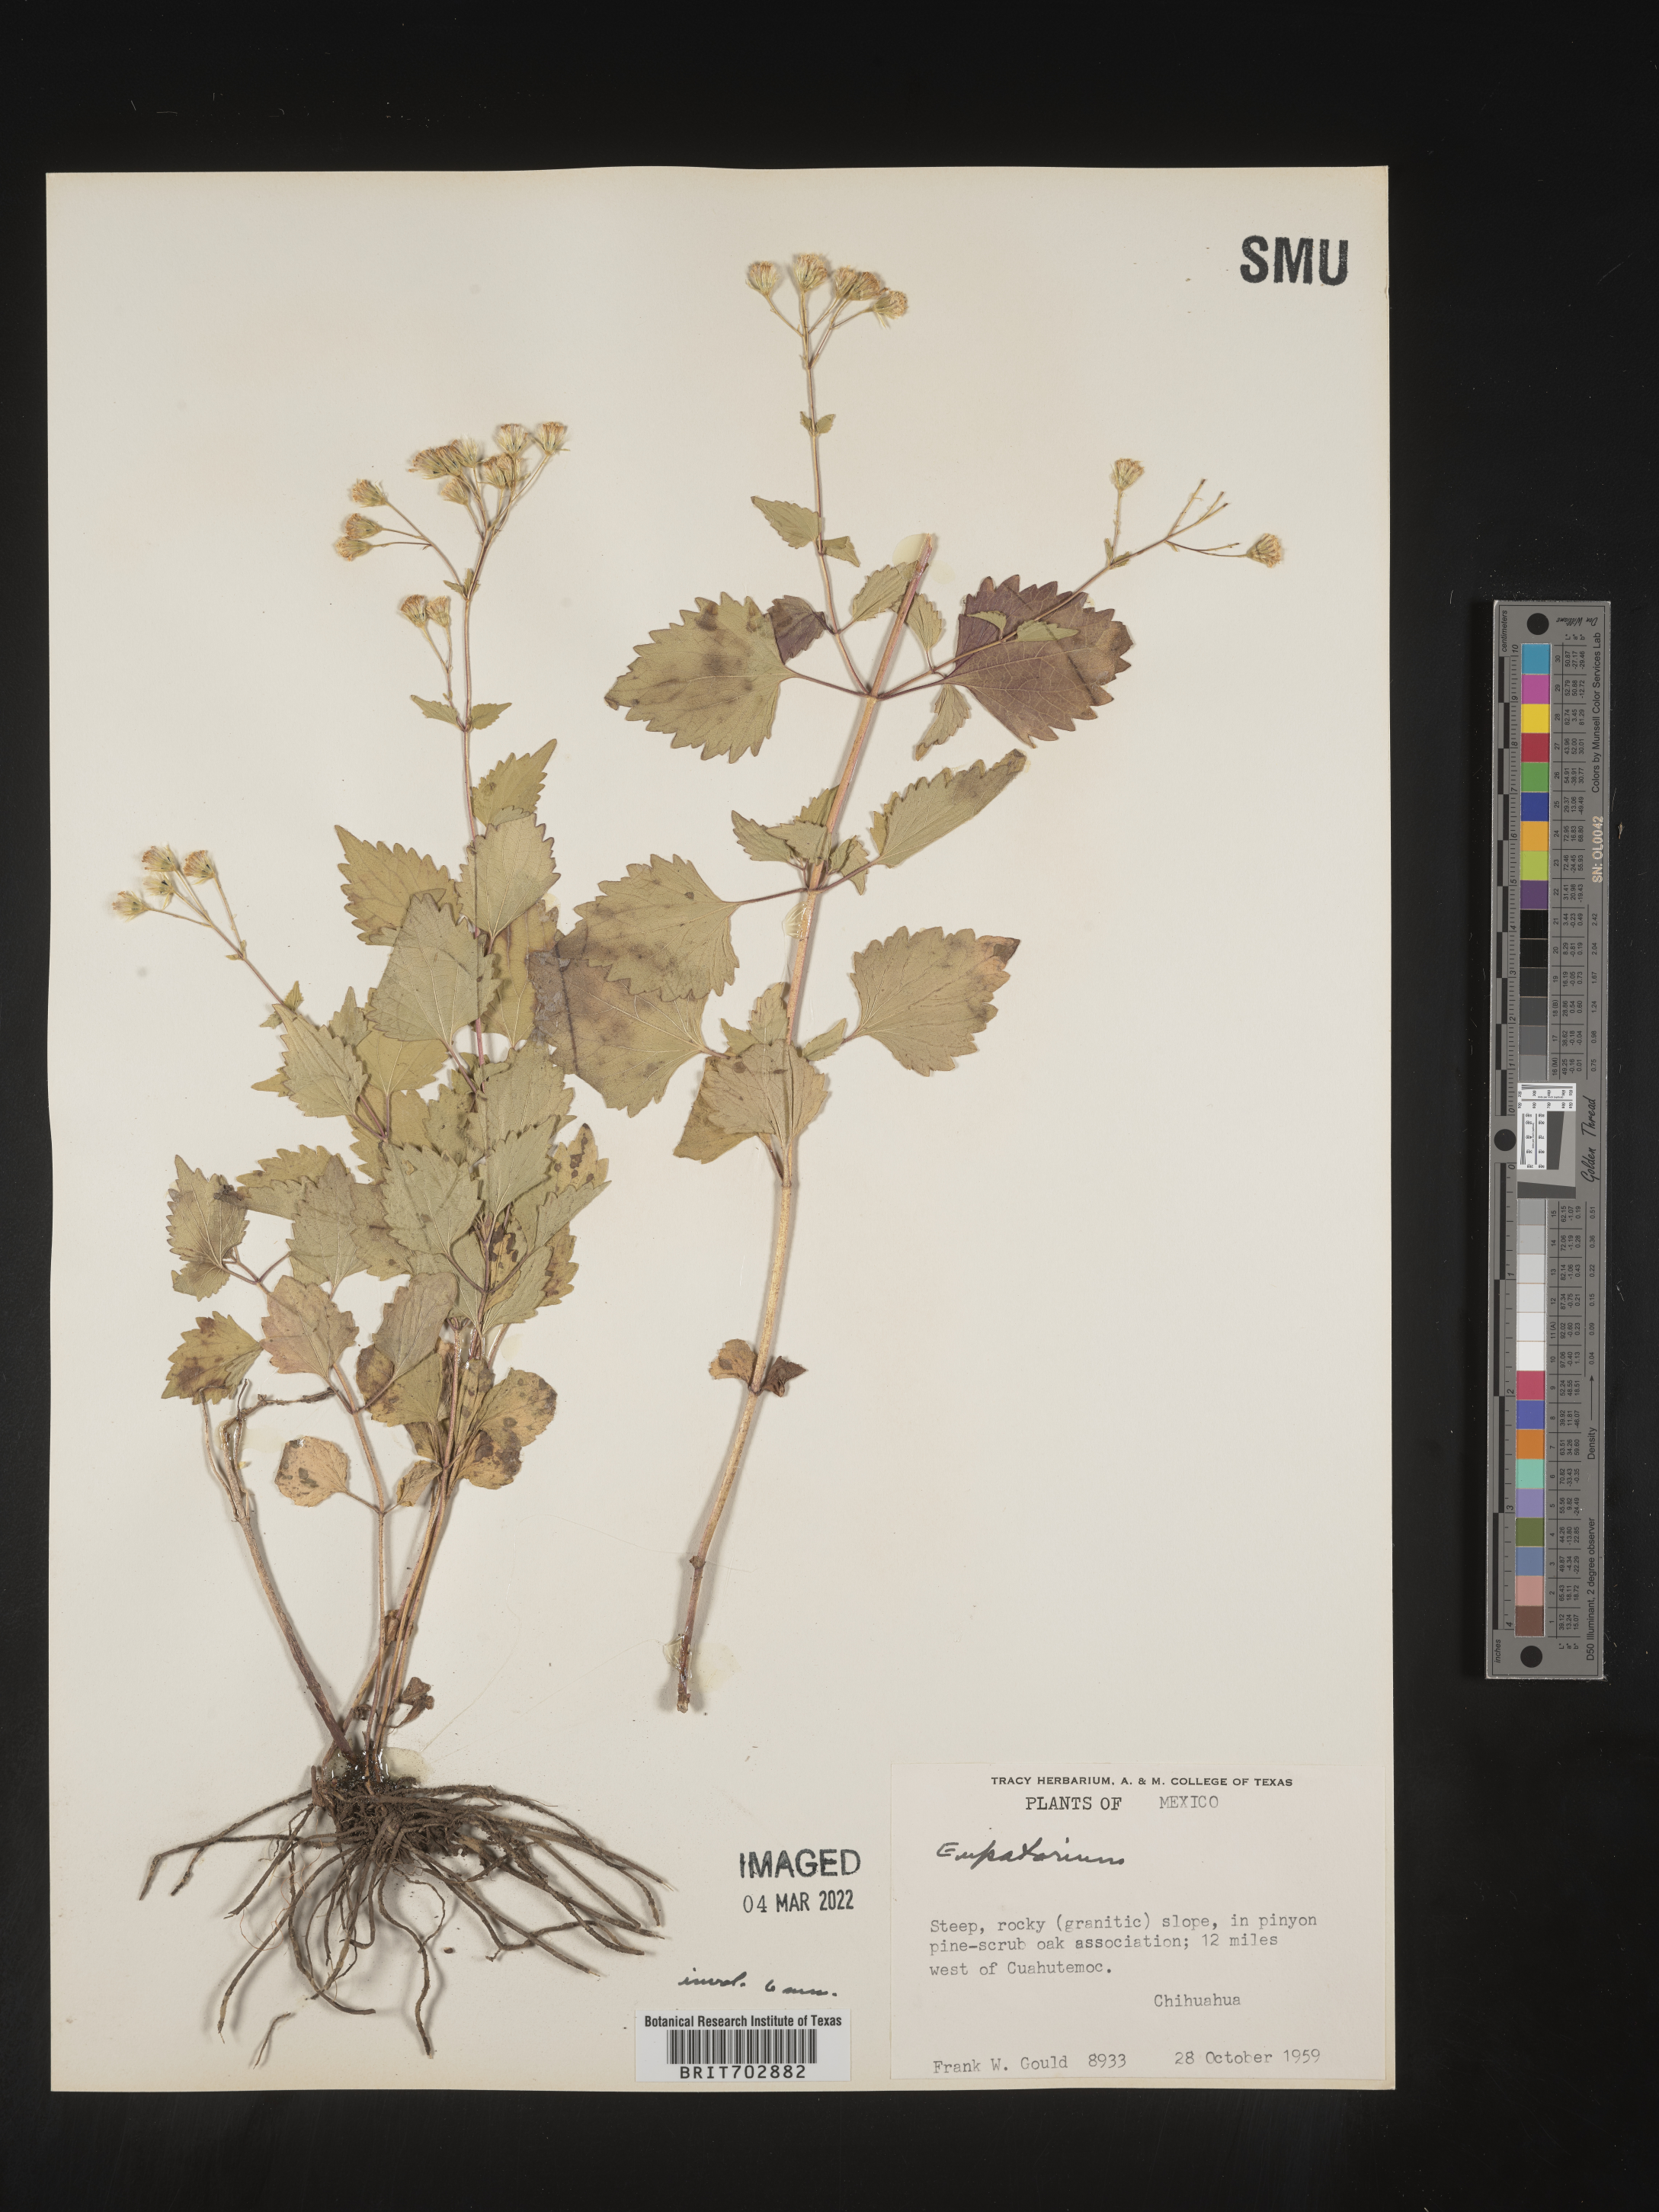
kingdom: Plantae
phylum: Tracheophyta
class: Magnoliopsida
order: Asterales
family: Asteraceae
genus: Eupatorium
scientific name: Eupatorium
